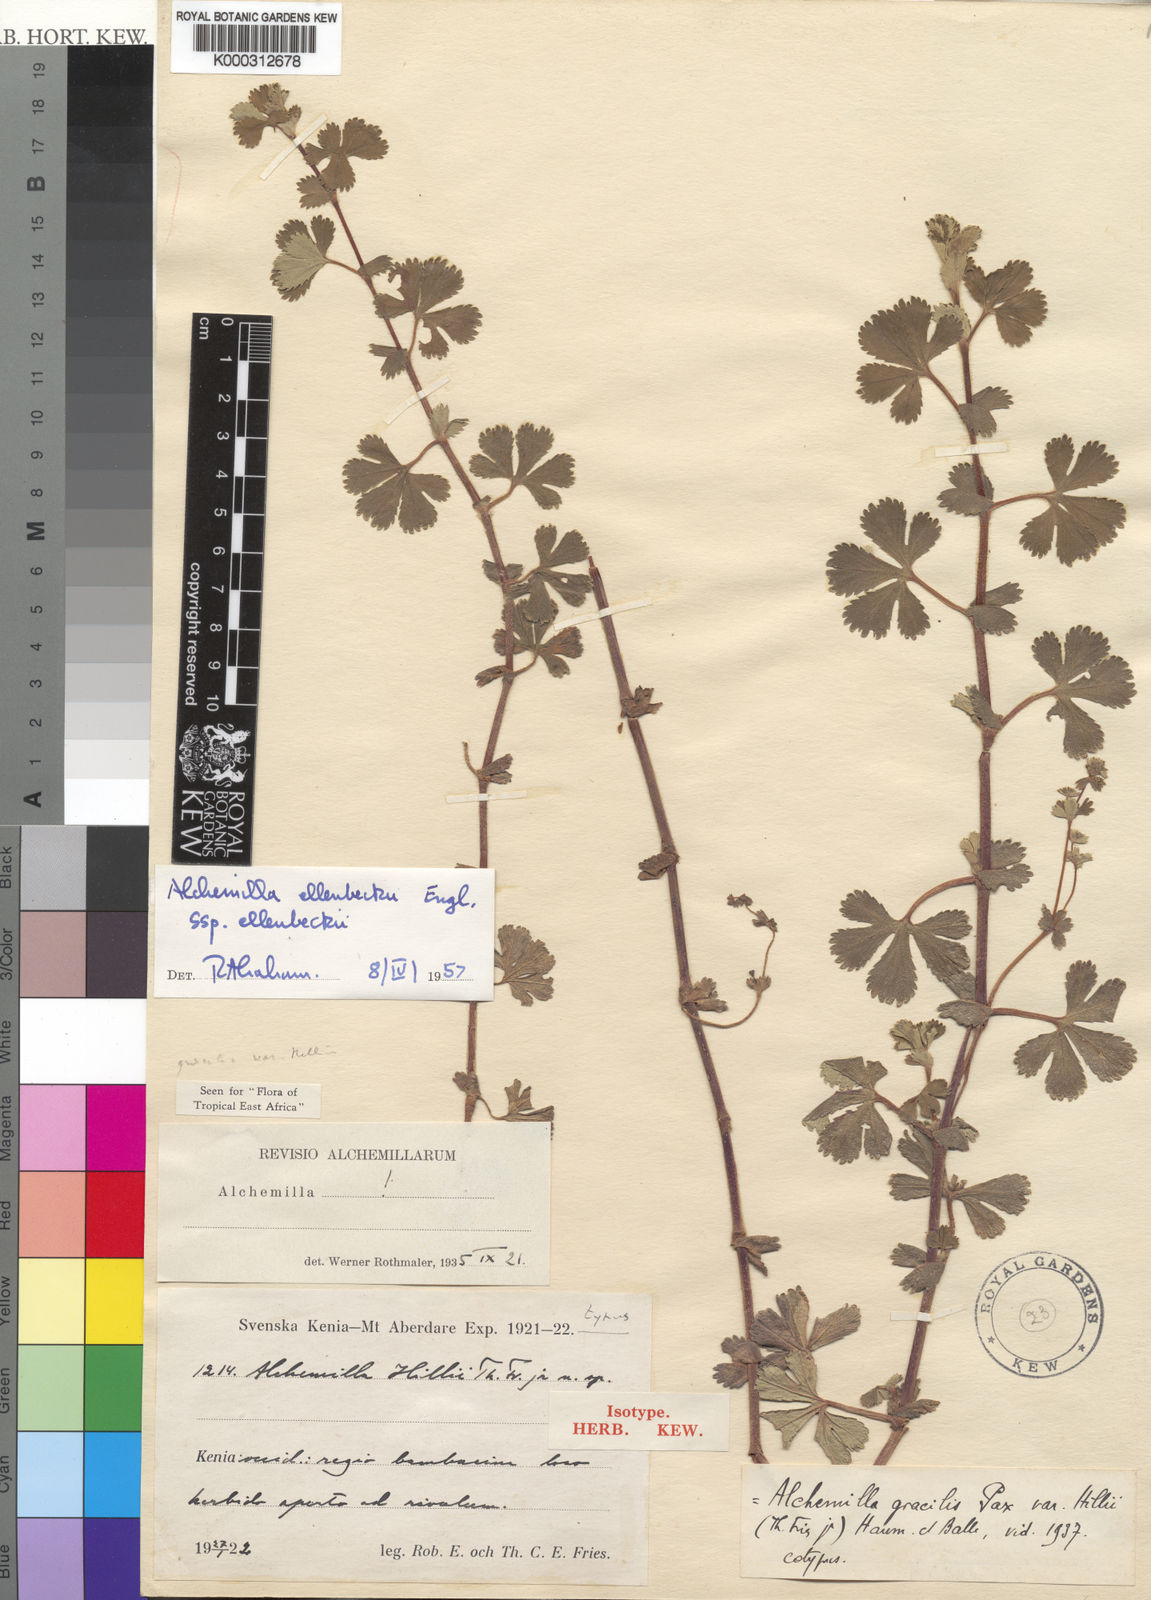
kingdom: Plantae
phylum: Tracheophyta
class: Magnoliopsida
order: Rosales
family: Rosaceae
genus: Alchemilla
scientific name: Alchemilla ellenbeckii
